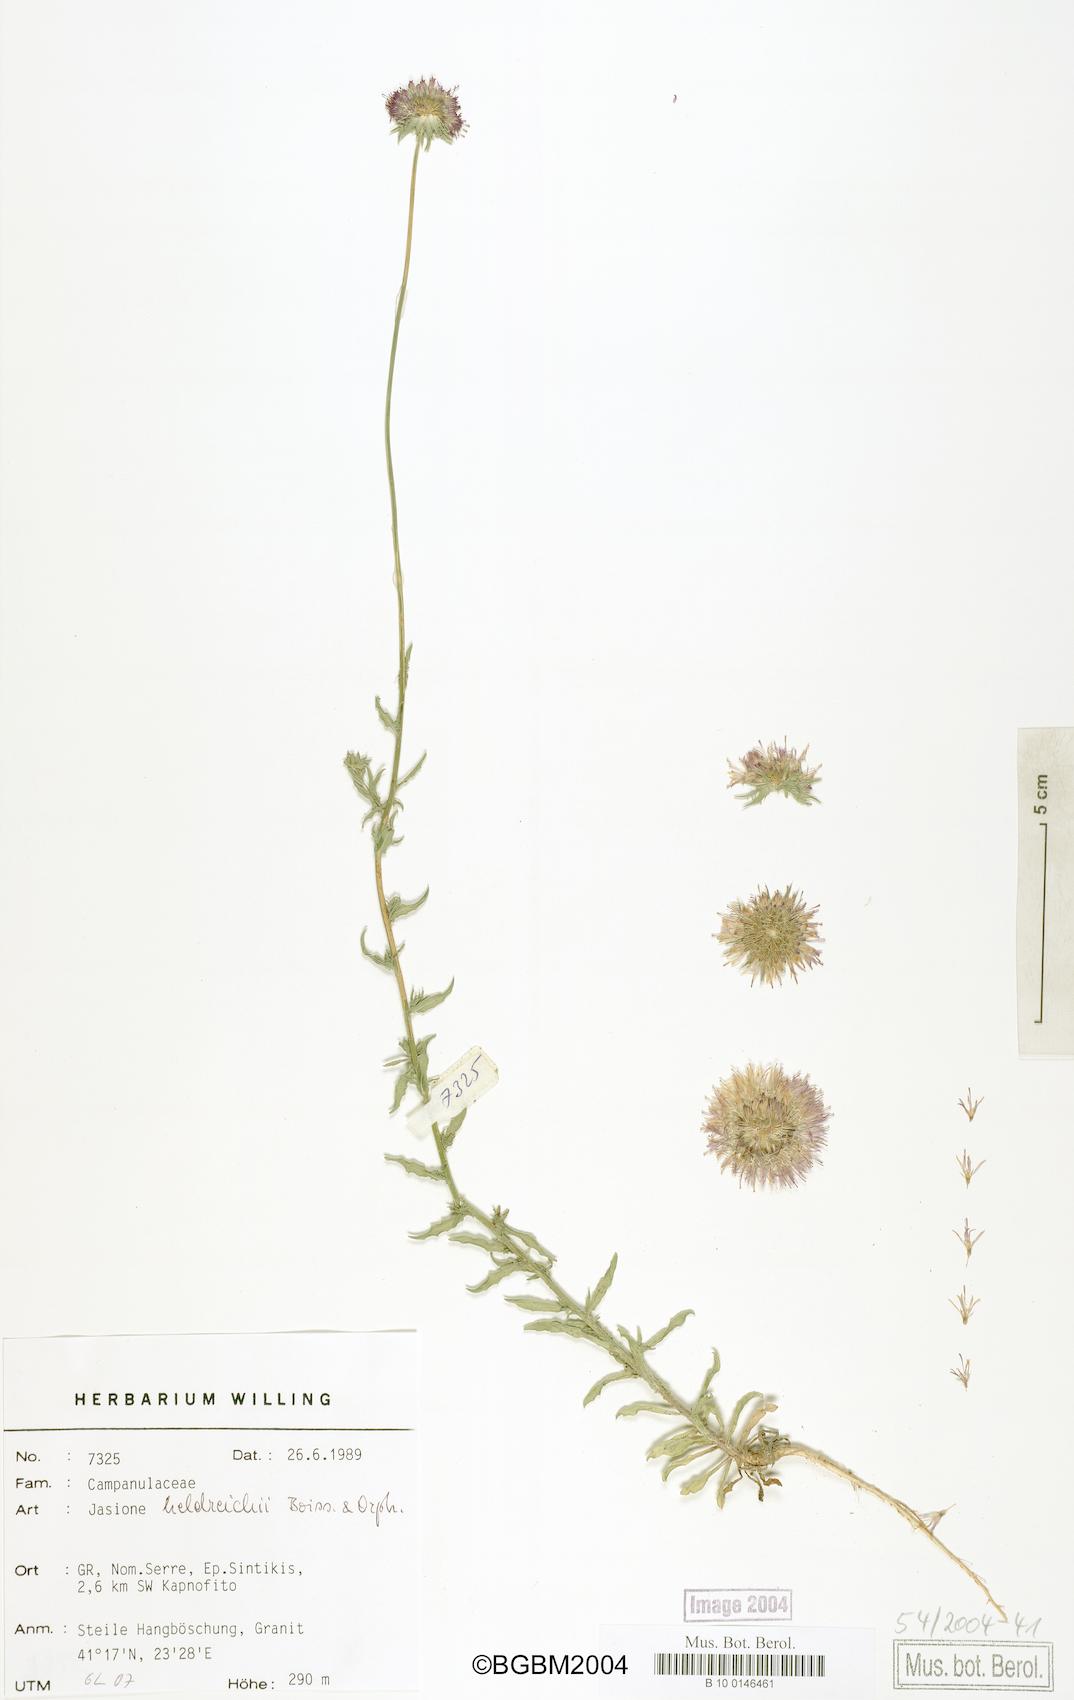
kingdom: Plantae
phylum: Tracheophyta
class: Magnoliopsida
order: Asterales
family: Campanulaceae
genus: Jasione
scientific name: Jasione heldreichii
